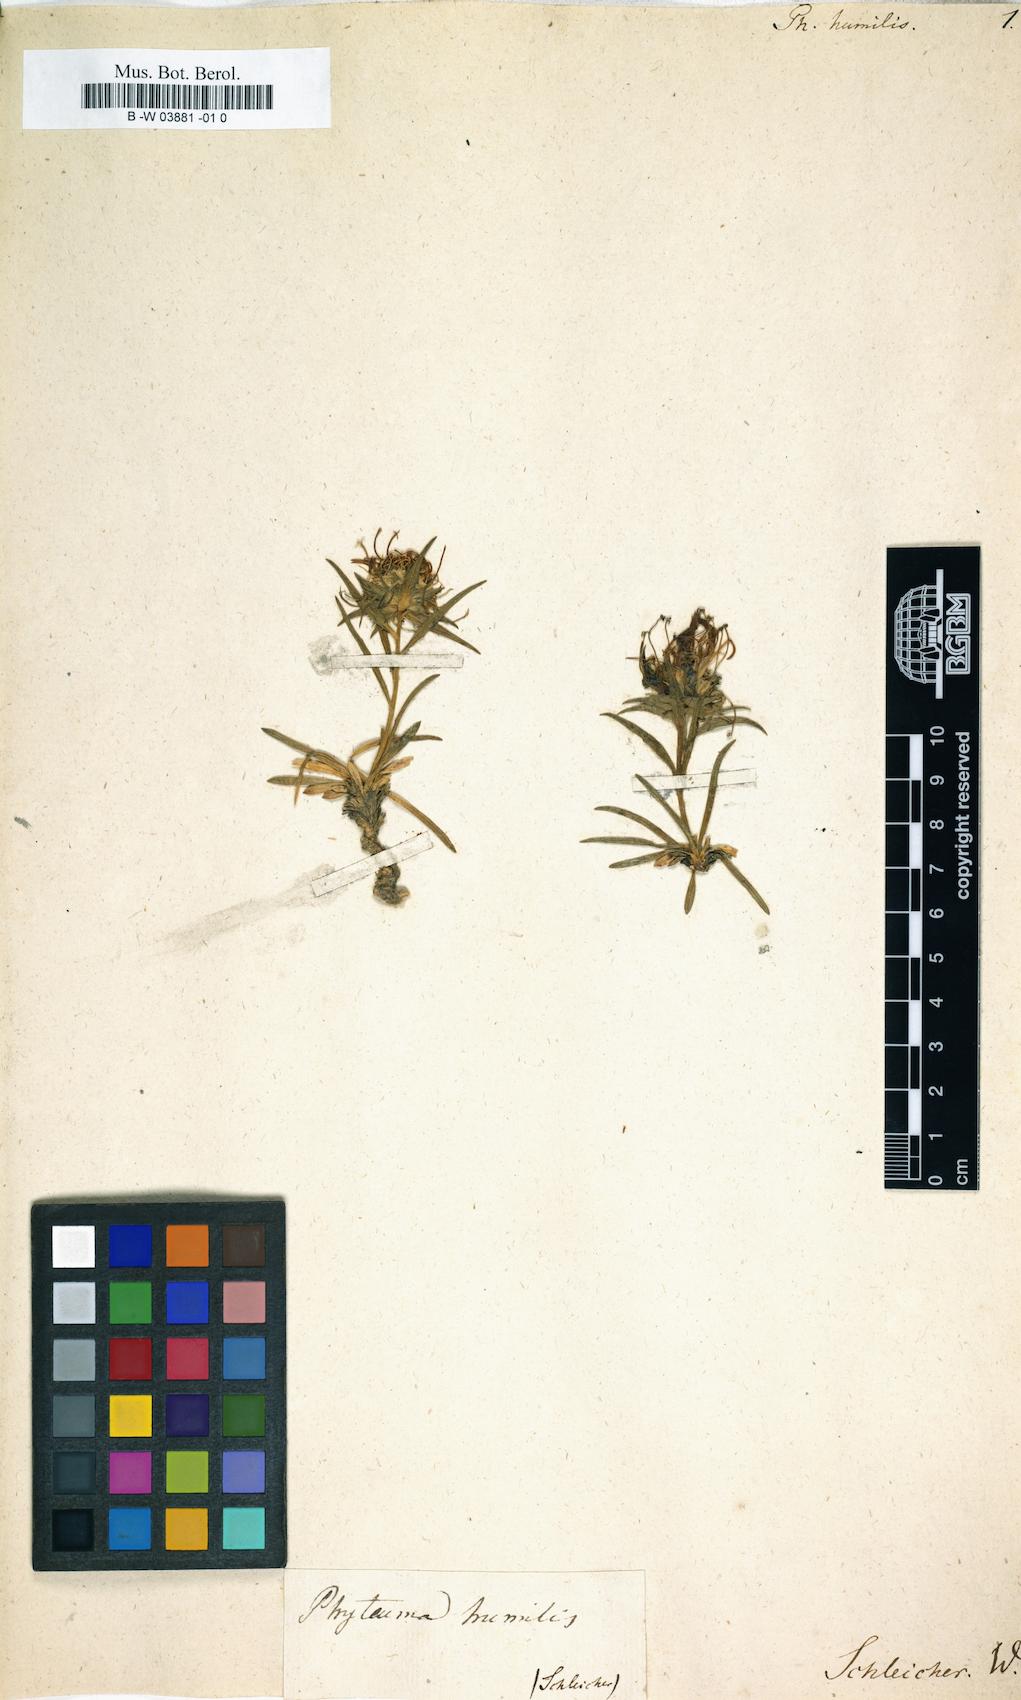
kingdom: Plantae
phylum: Tracheophyta
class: Magnoliopsida
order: Asterales
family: Campanulaceae
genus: Phyteuma
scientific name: Phyteuma humile
